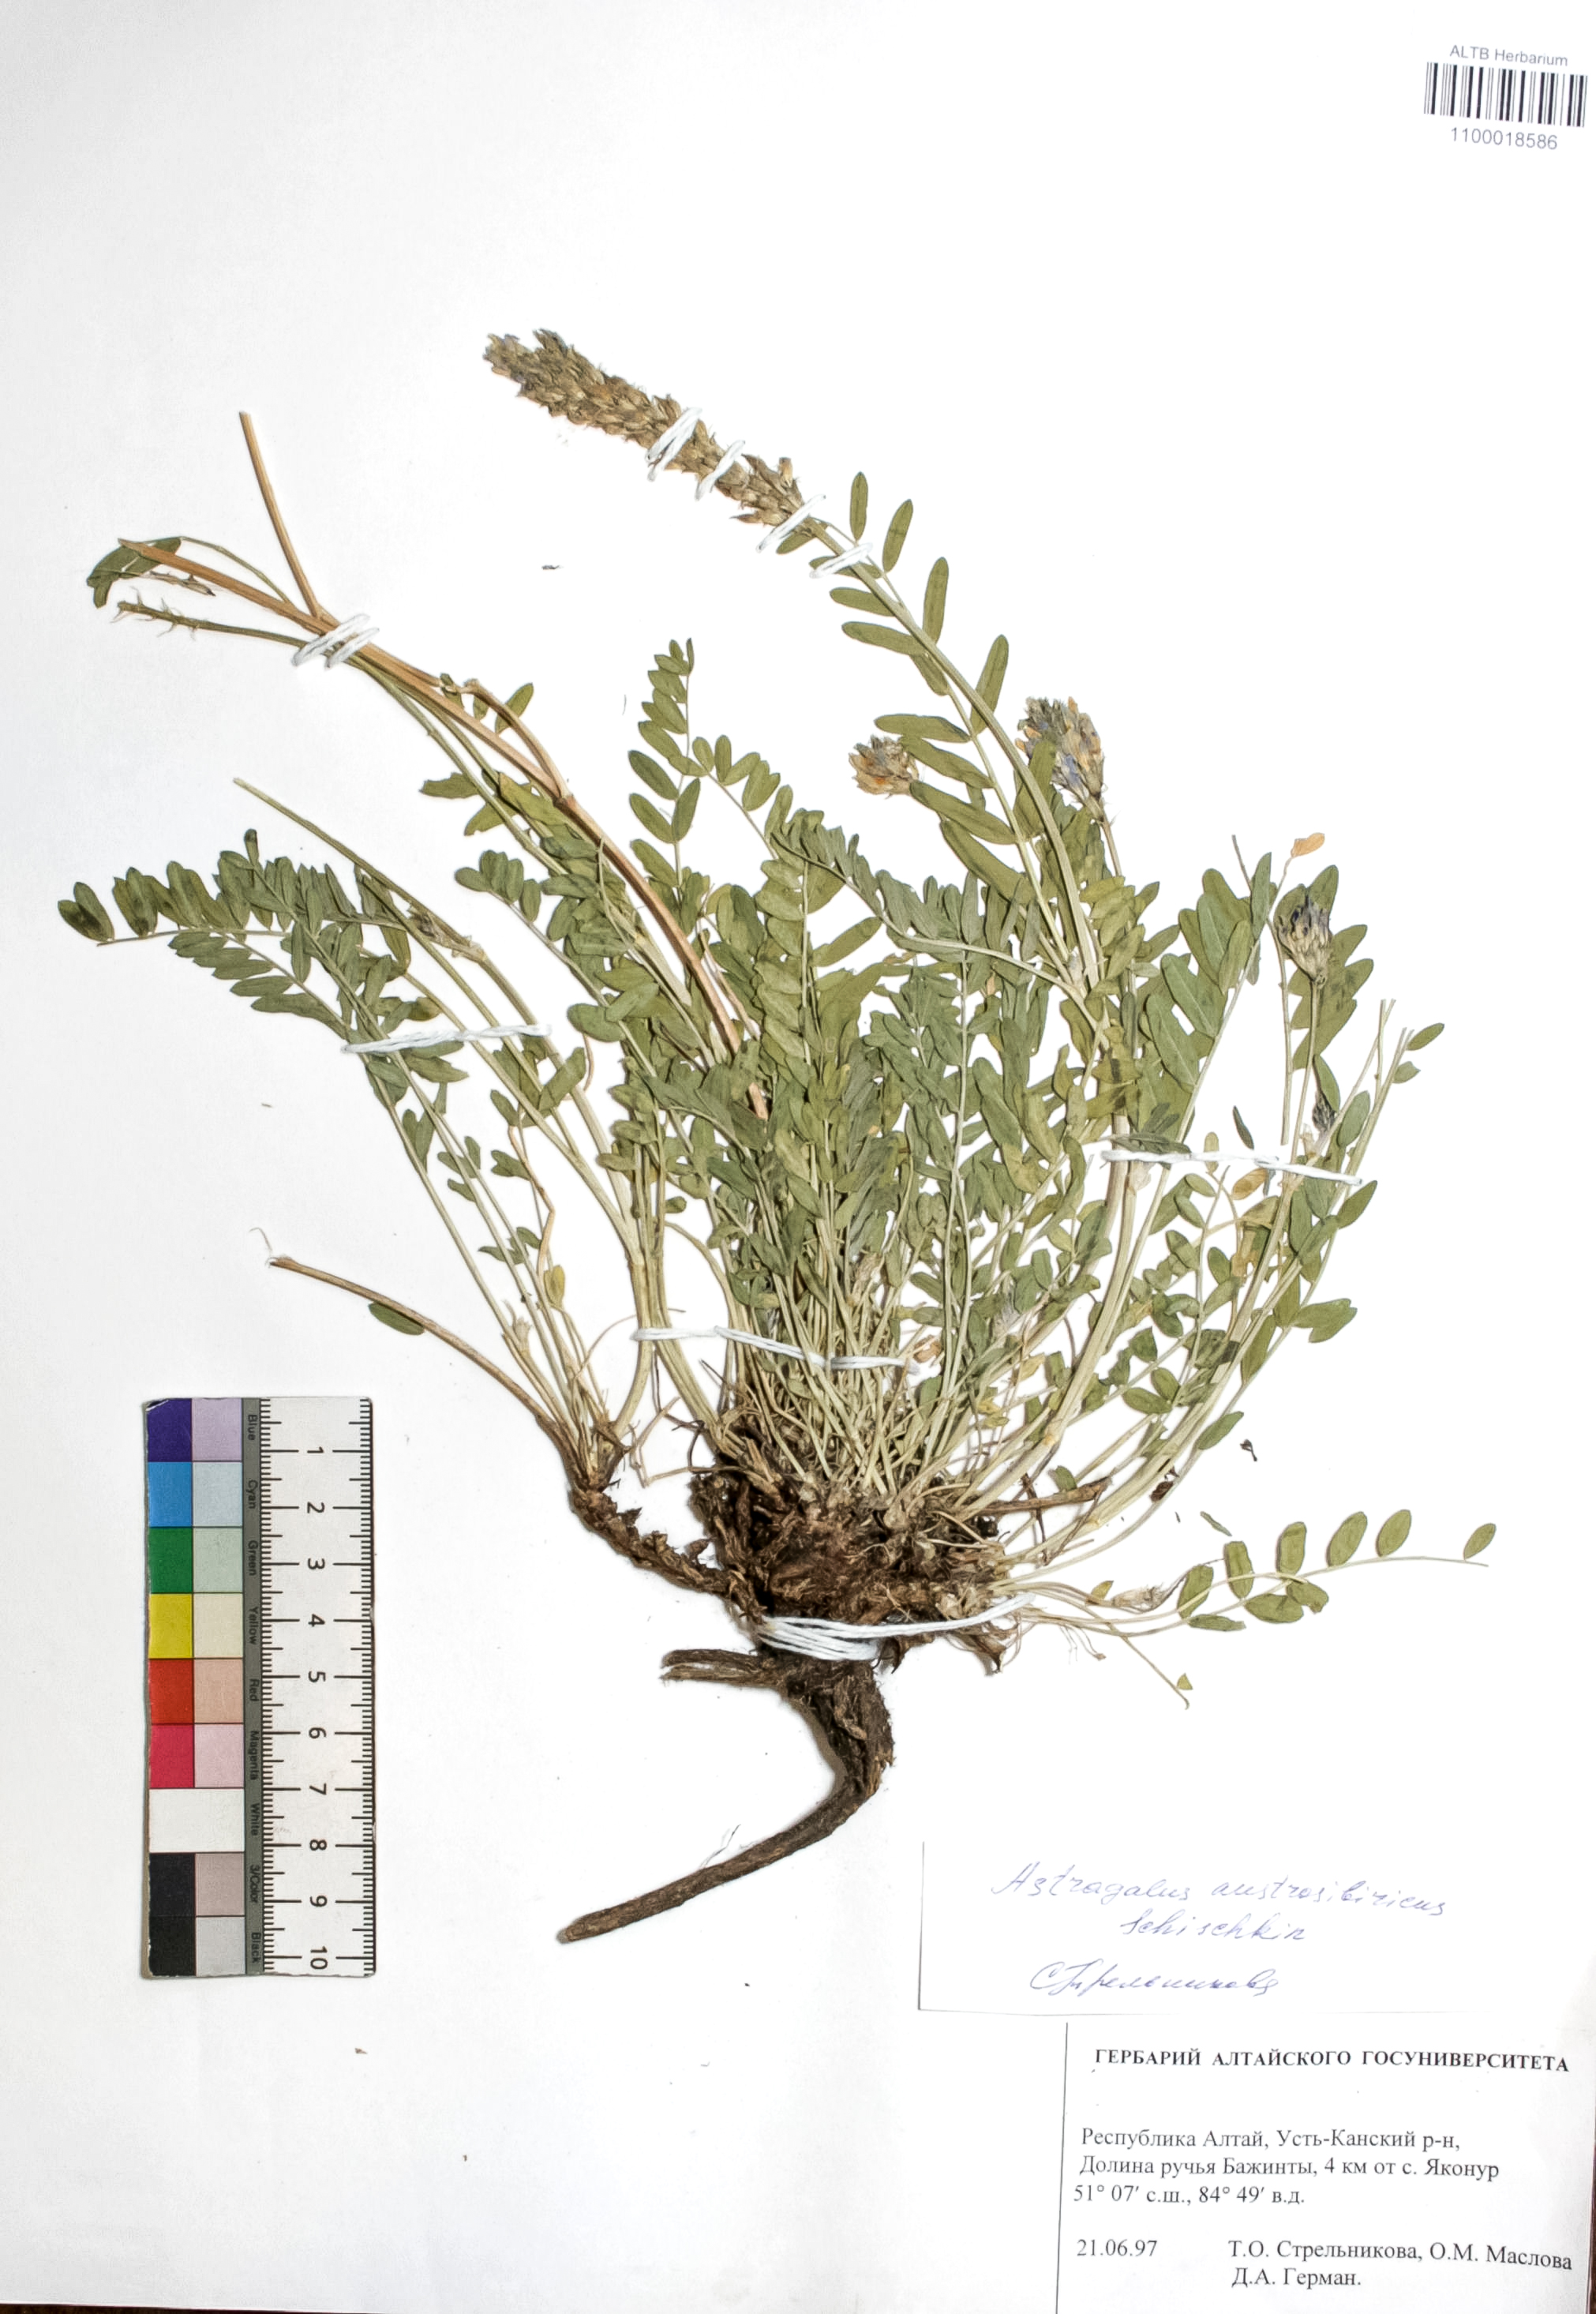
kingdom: Plantae
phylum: Tracheophyta
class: Magnoliopsida
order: Fabales
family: Fabaceae
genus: Astragalus
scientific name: Astragalus laxmannii
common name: Laxmann's milk-vetch
